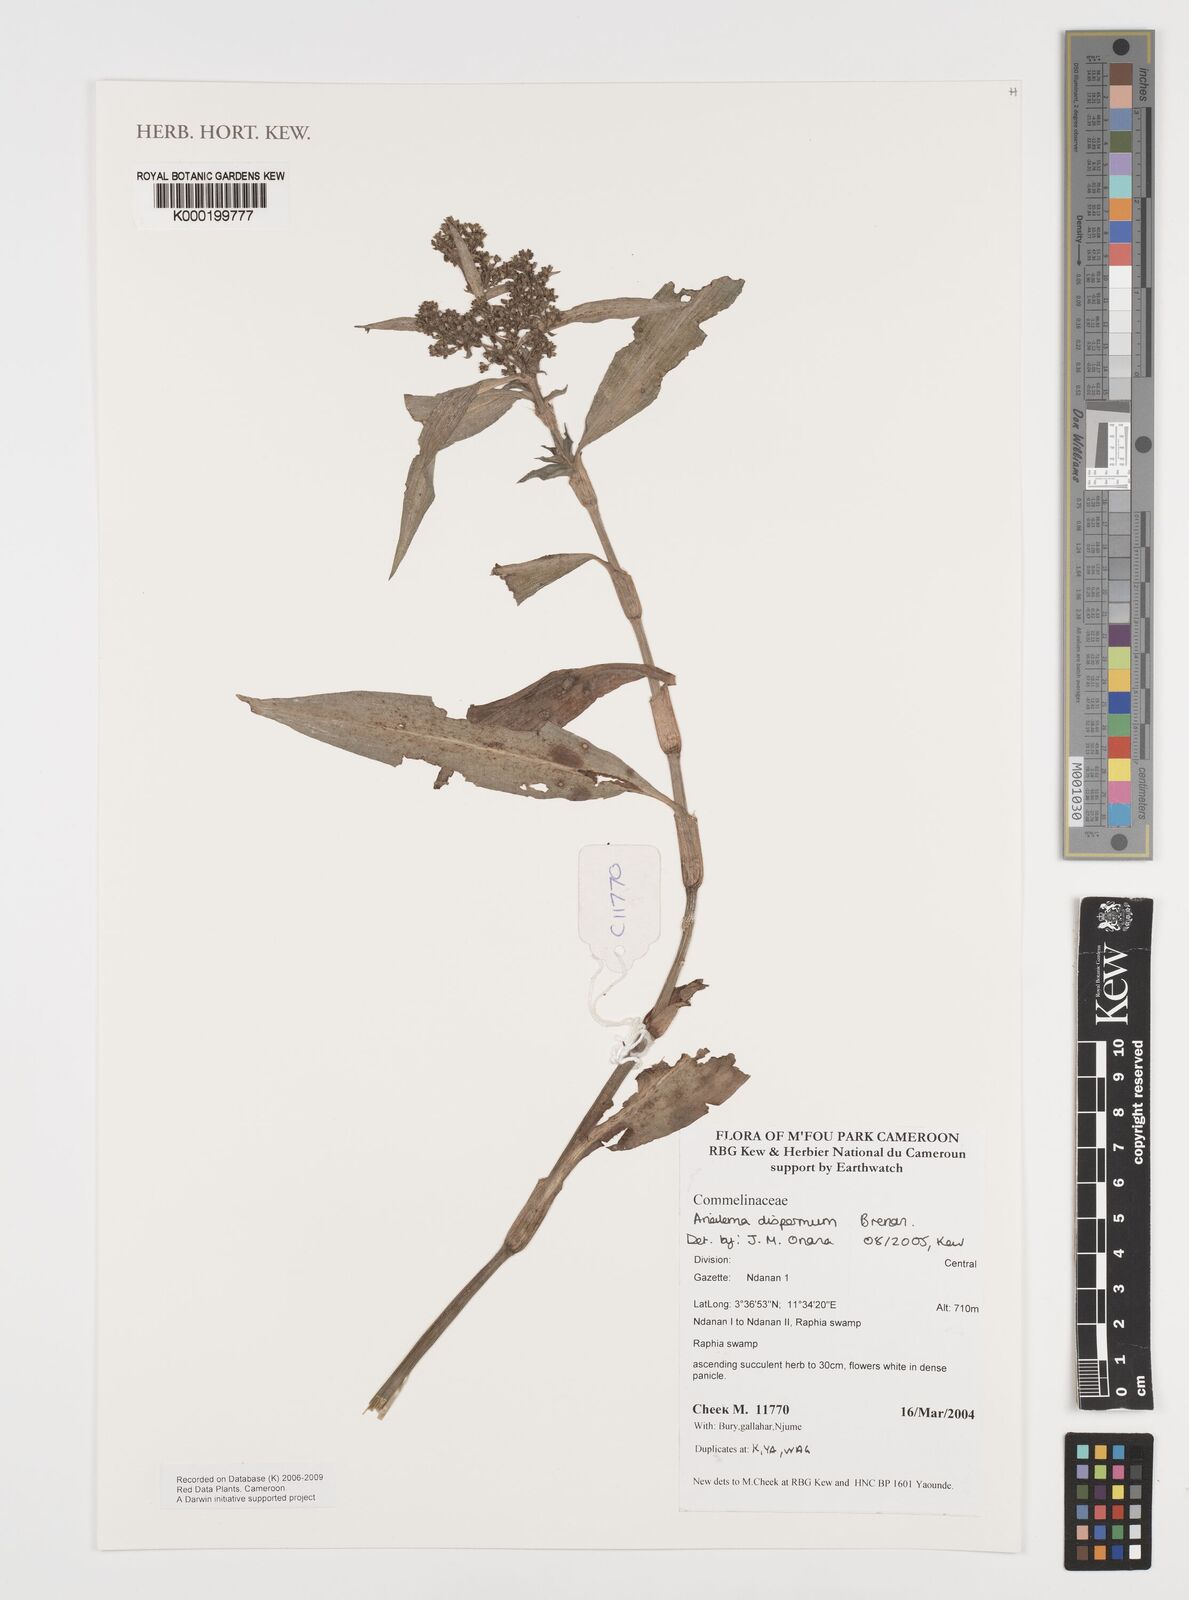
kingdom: Plantae
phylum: Tracheophyta
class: Liliopsida
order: Commelinales
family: Commelinaceae
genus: Aneilema
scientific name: Aneilema dispermum
